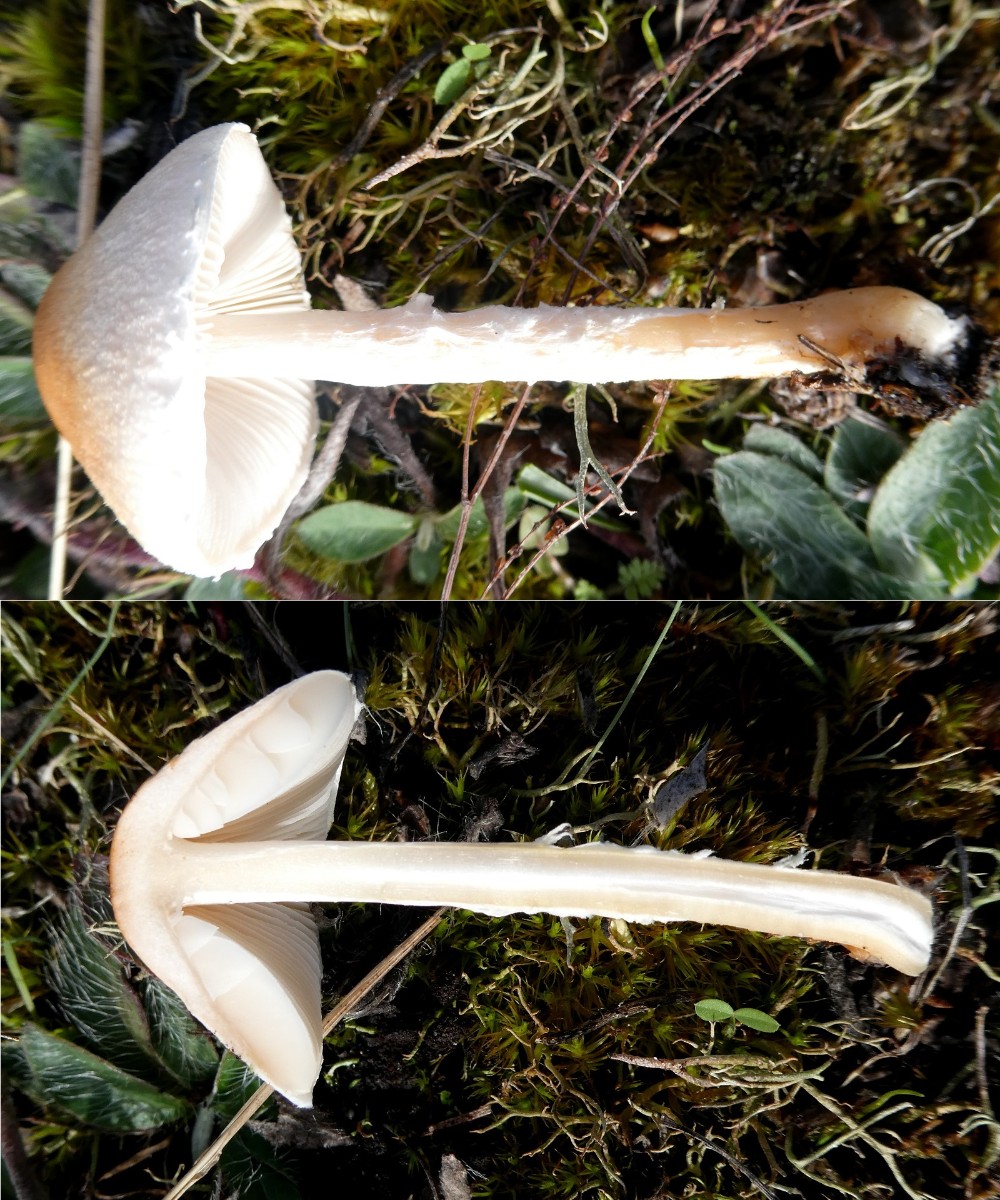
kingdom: Fungi
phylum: Basidiomycota
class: Agaricomycetes
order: Agaricales
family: Agaricaceae
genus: Lepiota
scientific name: Lepiota
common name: parasolhat
